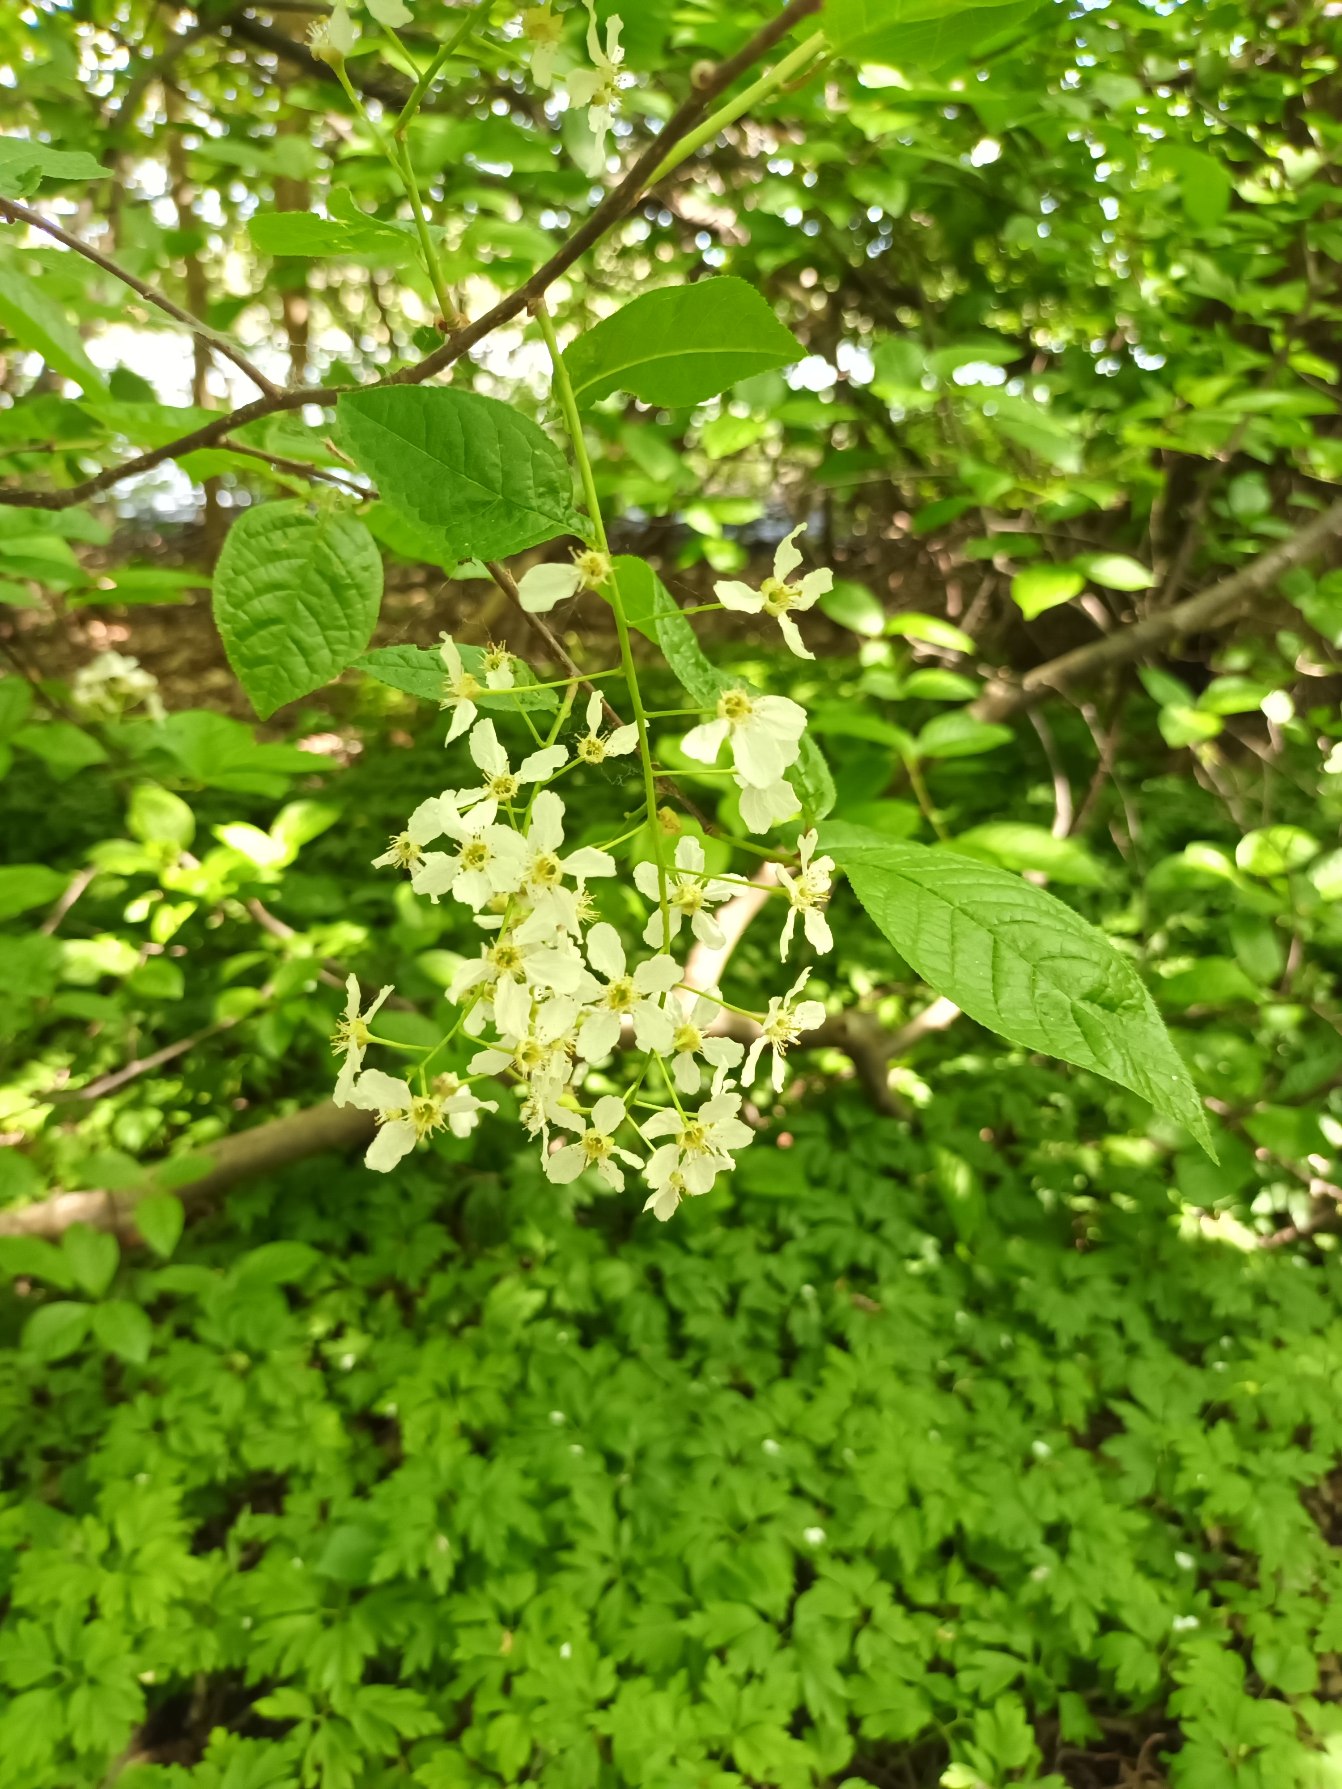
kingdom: Plantae
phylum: Tracheophyta
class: Magnoliopsida
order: Rosales
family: Rosaceae
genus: Prunus
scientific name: Prunus padus
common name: Almindelig hæg
